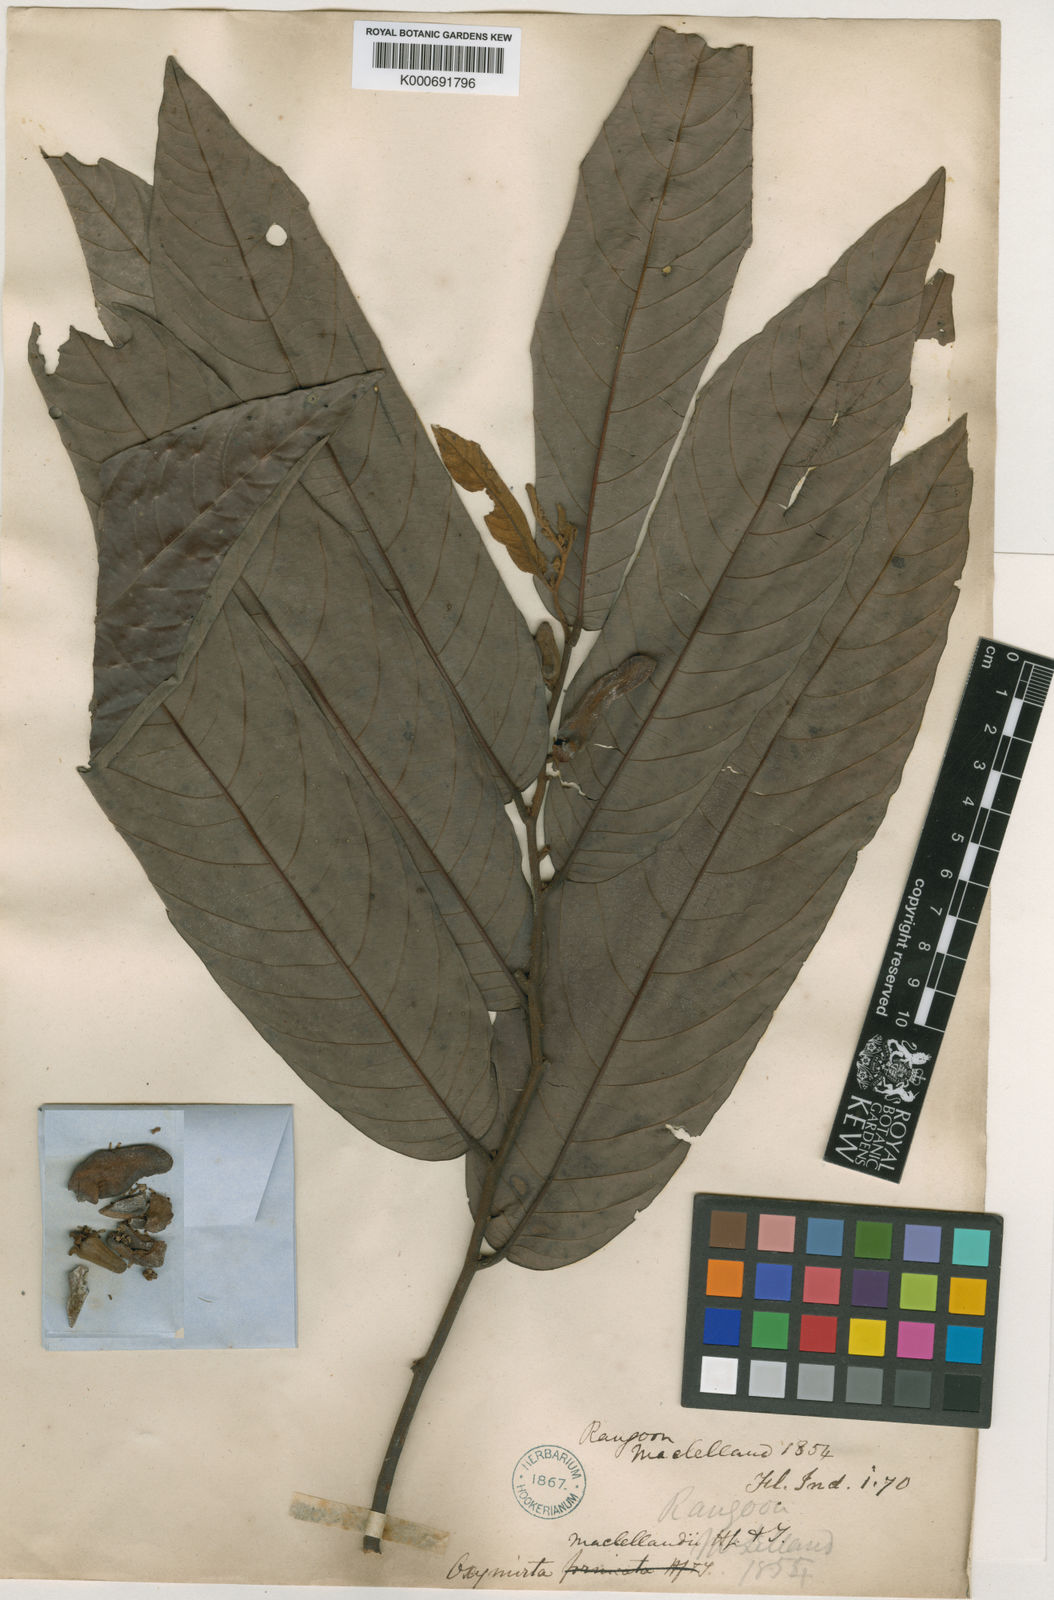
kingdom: Plantae
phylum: Tracheophyta
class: Magnoliopsida
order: Magnoliales
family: Annonaceae
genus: Friesodielsia
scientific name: Friesodielsia maclellandii
